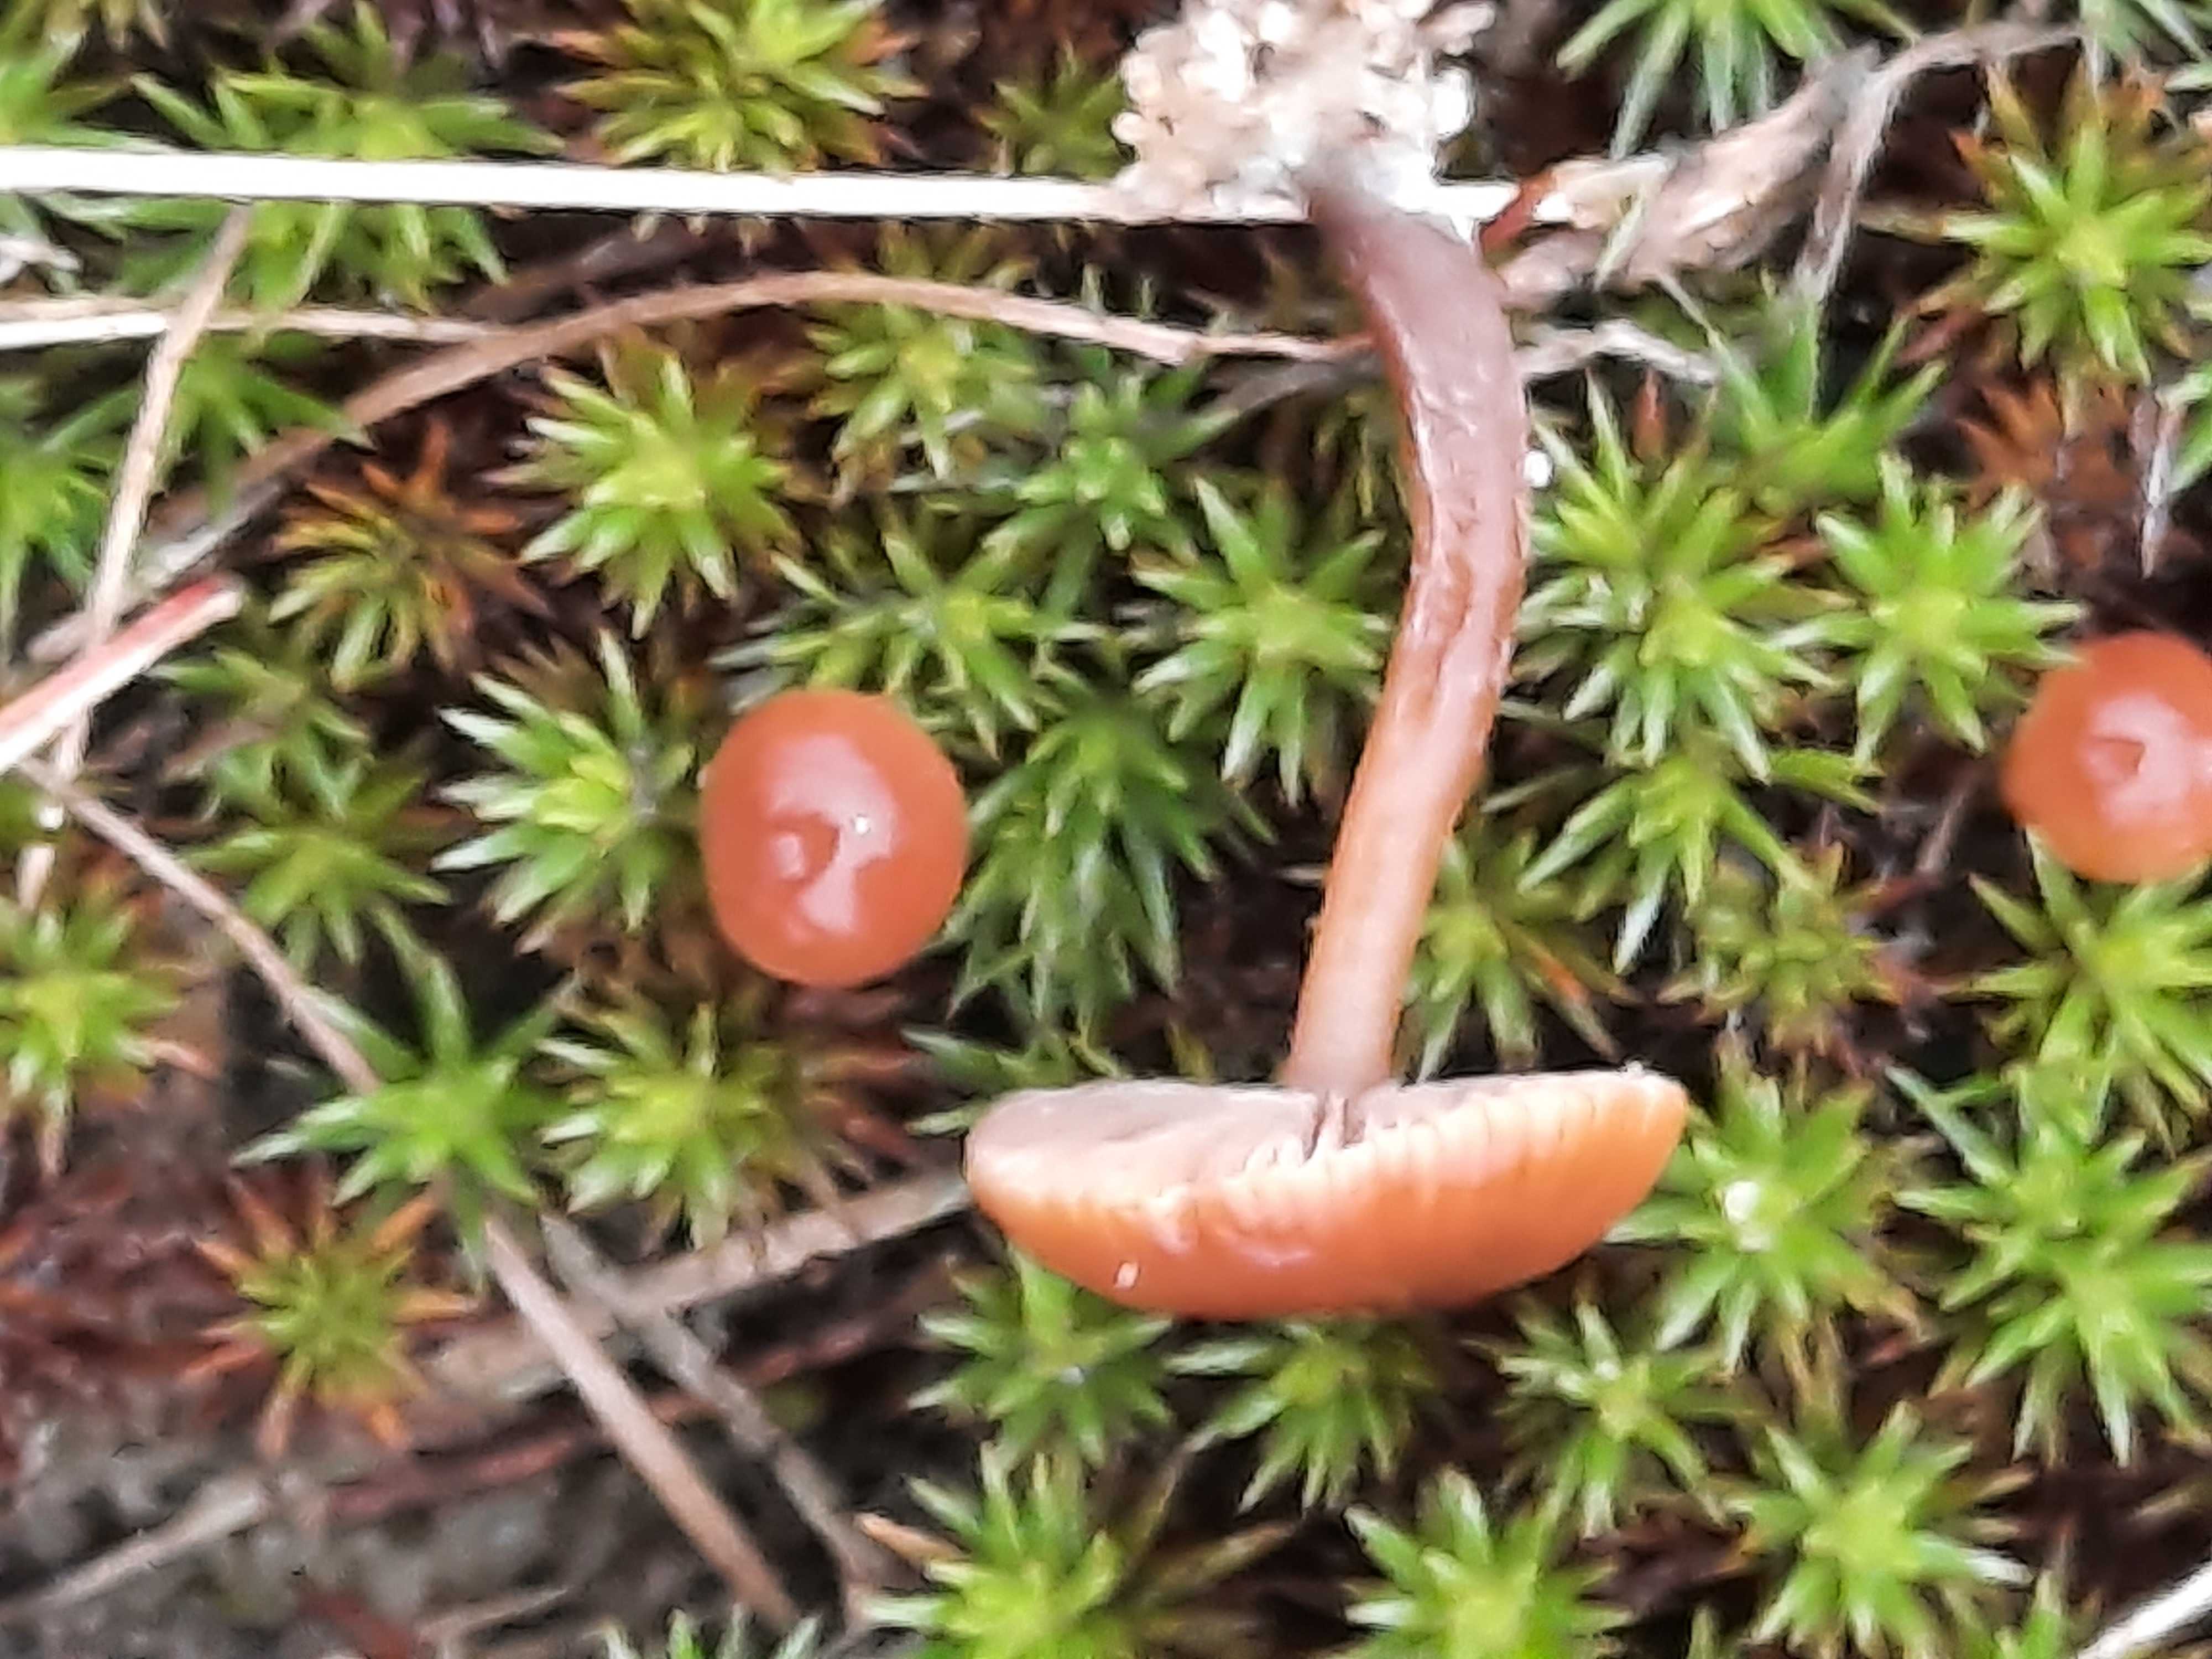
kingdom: Fungi
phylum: Basidiomycota
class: Agaricomycetes
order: Agaricales
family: Strophariaceae
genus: Deconica
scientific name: Deconica montana
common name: rødbrun stråhat
